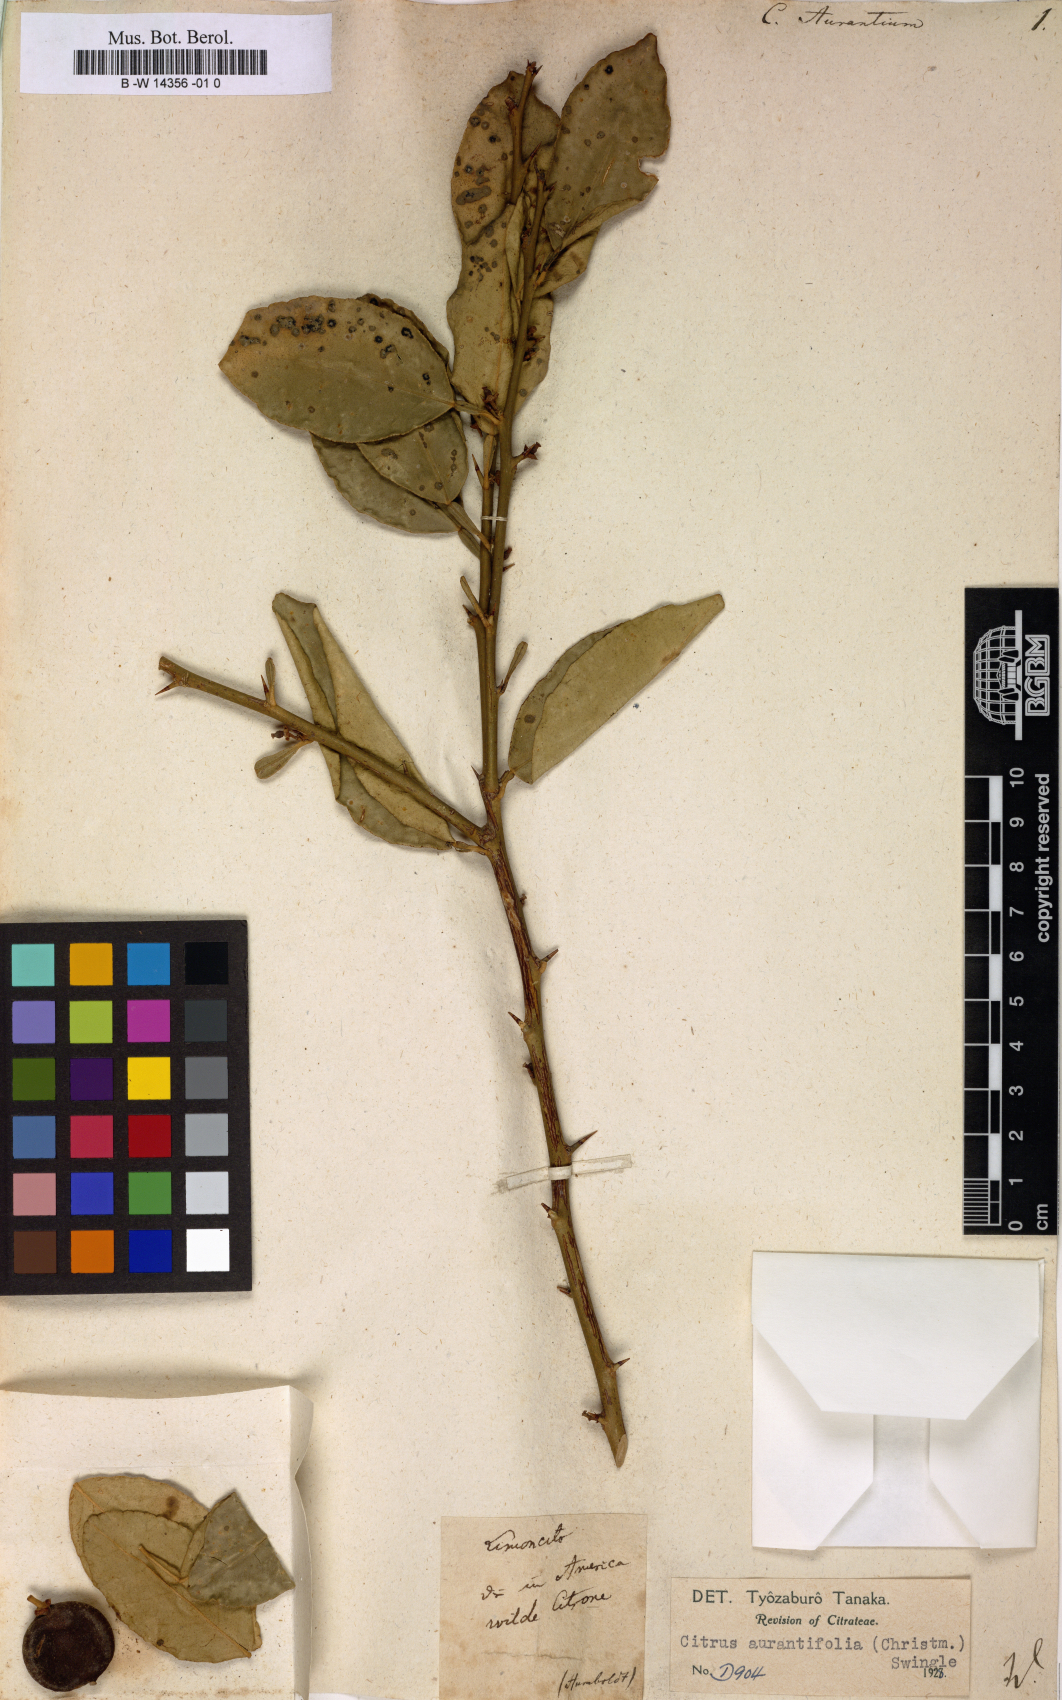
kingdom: Plantae
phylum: Tracheophyta
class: Magnoliopsida
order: Sapindales
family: Rutaceae
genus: Citrus
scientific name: Citrus aurantium
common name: Sour orange
